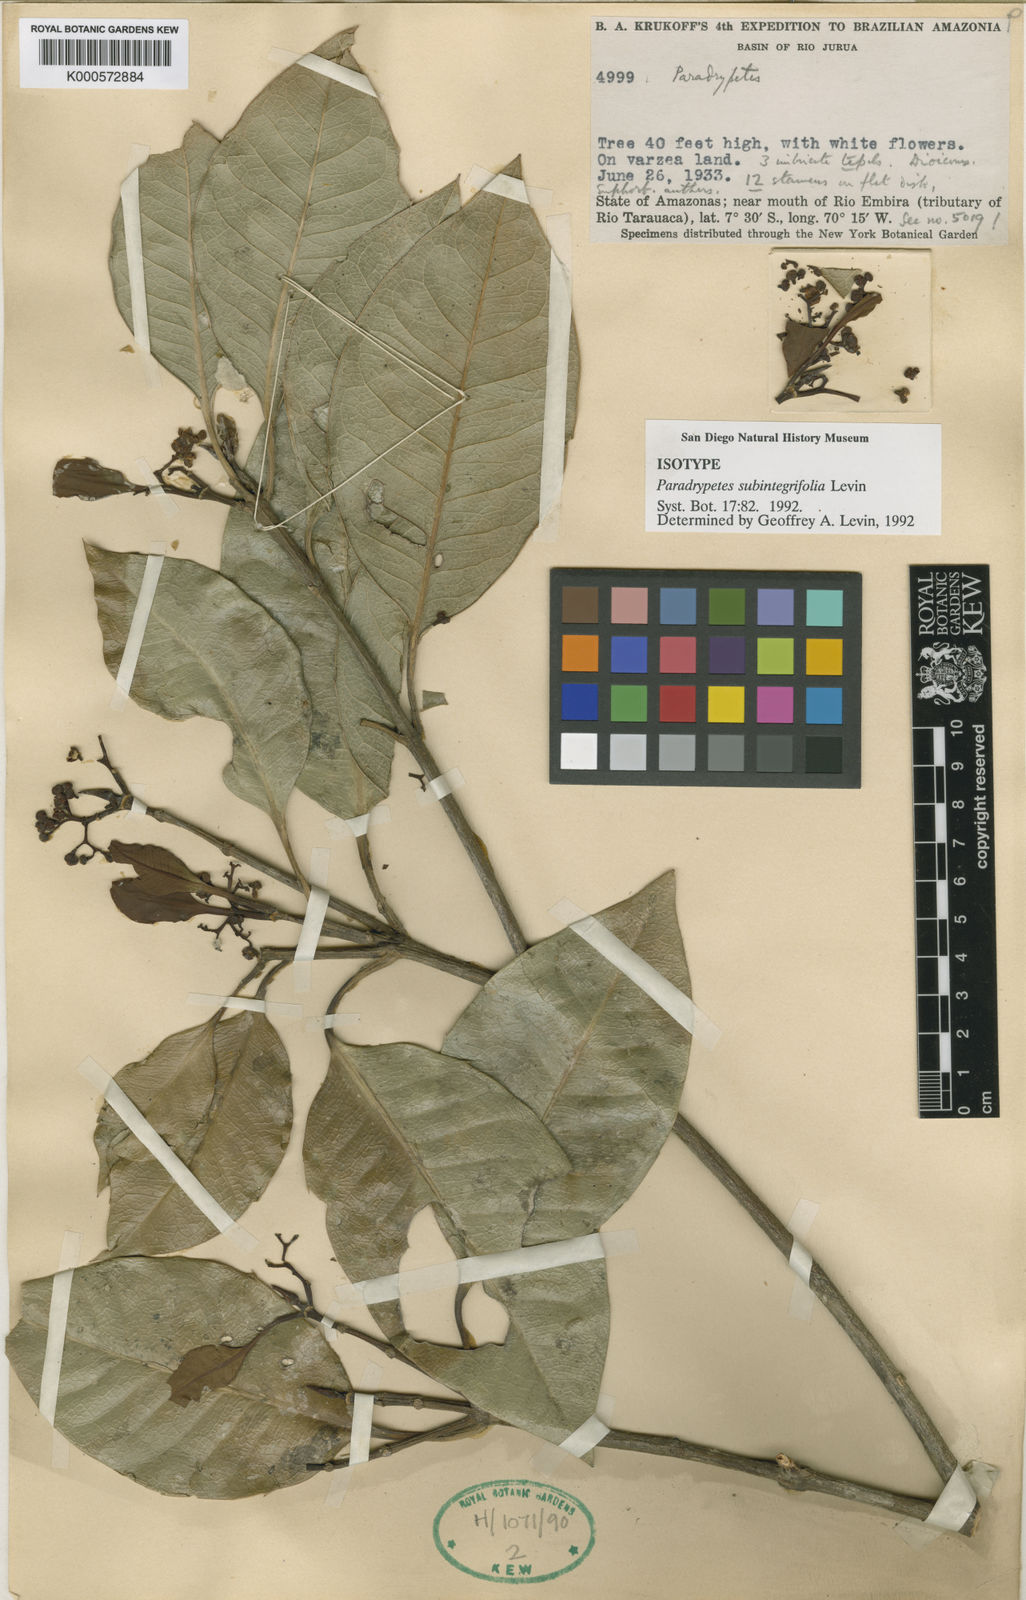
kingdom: Plantae
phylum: Tracheophyta
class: Magnoliopsida
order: Malpighiales
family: Rhizophoraceae
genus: Paradrypetes
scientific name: Paradrypetes subintegrifolia
